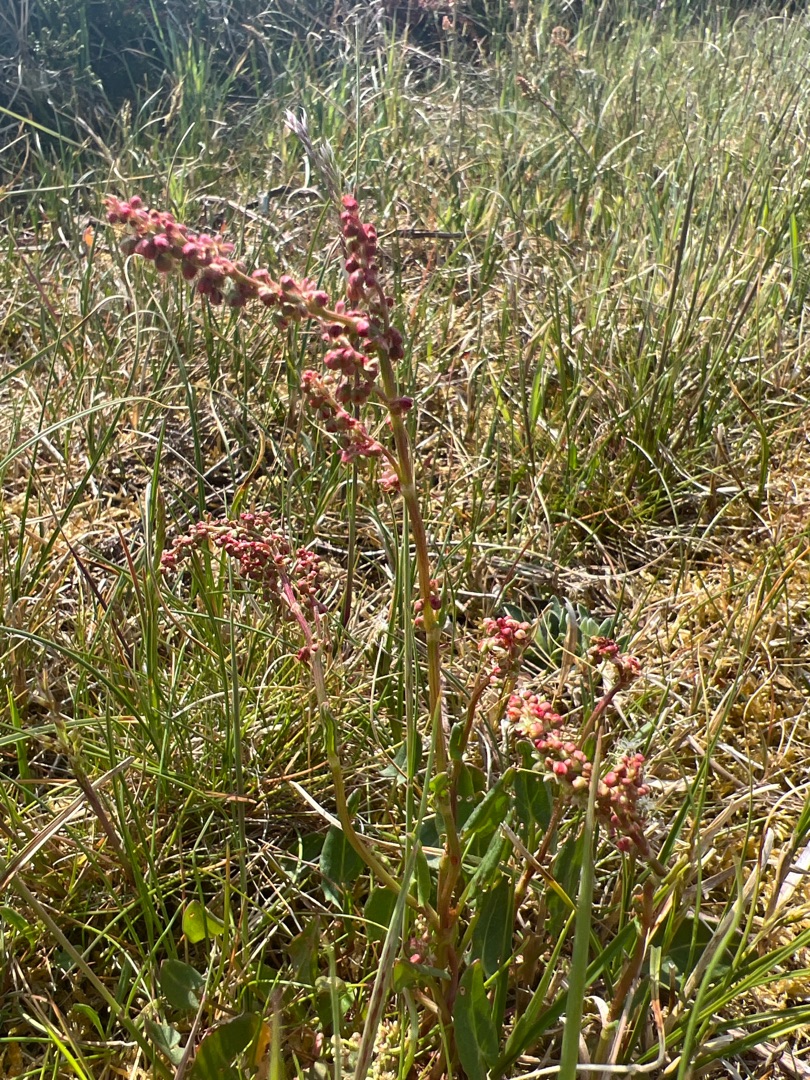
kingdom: Plantae
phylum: Tracheophyta
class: Magnoliopsida
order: Caryophyllales
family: Polygonaceae
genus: Rumex
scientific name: Rumex acetosa
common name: Almindelig syre
